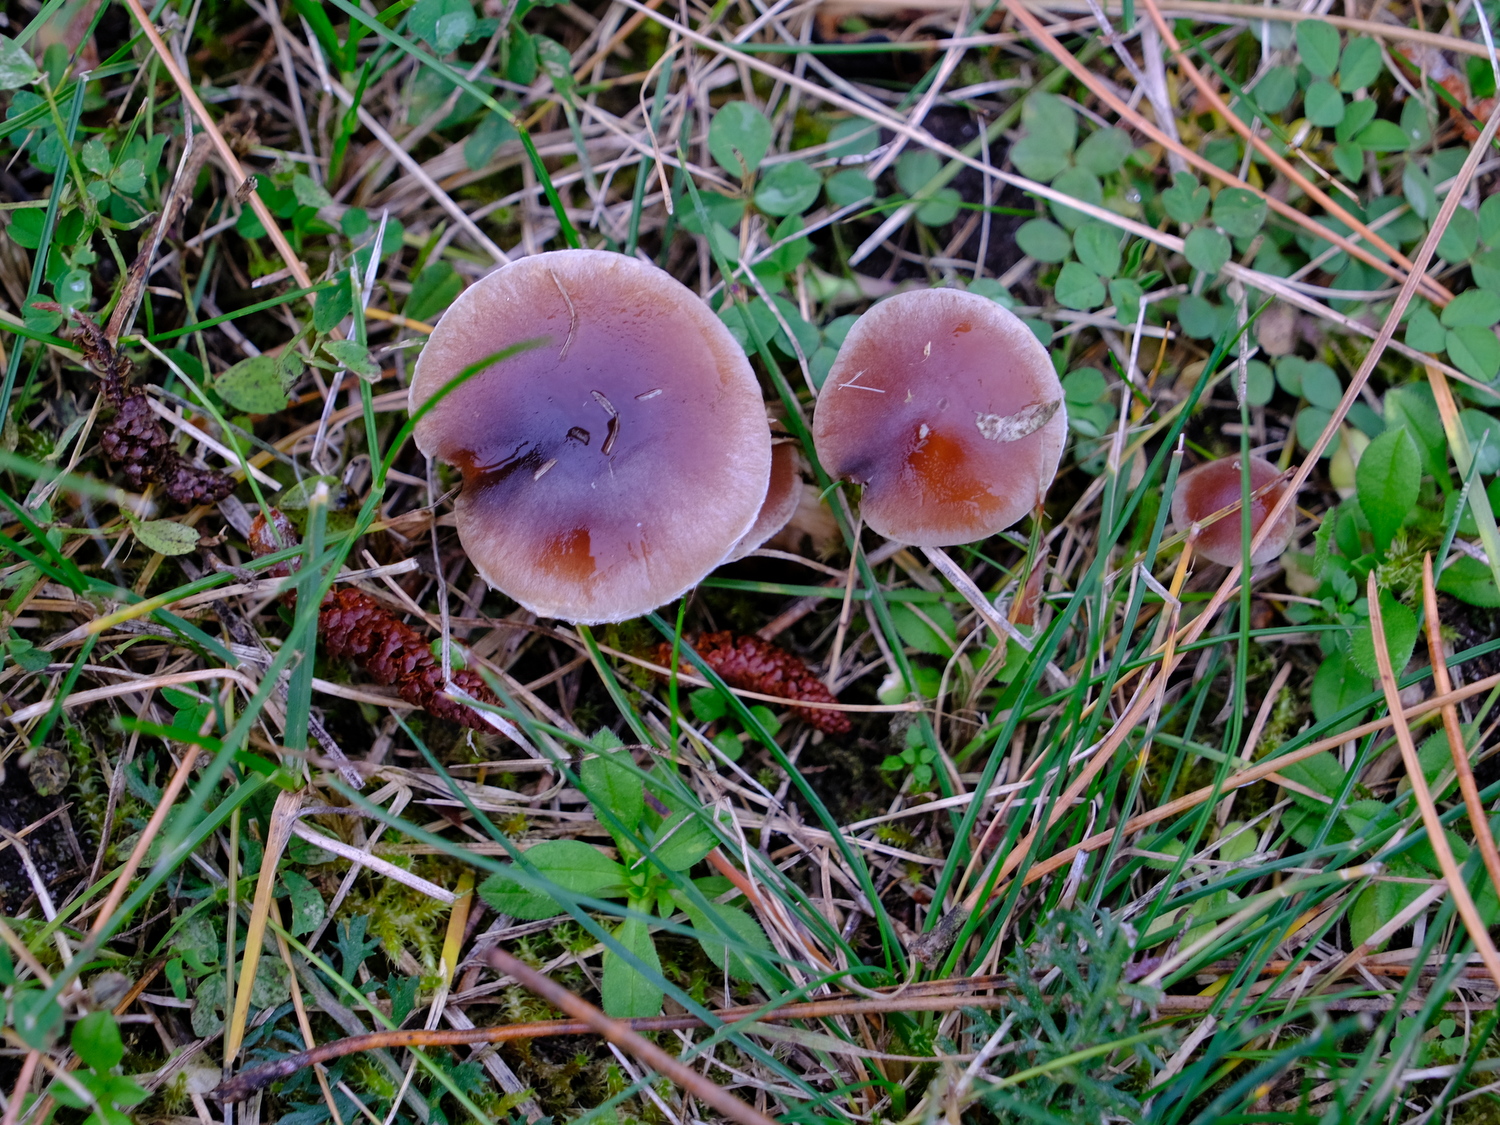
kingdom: Fungi
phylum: Basidiomycota
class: Agaricomycetes
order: Agaricales
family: Hymenogastraceae
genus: Hebeloma
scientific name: Hebeloma
